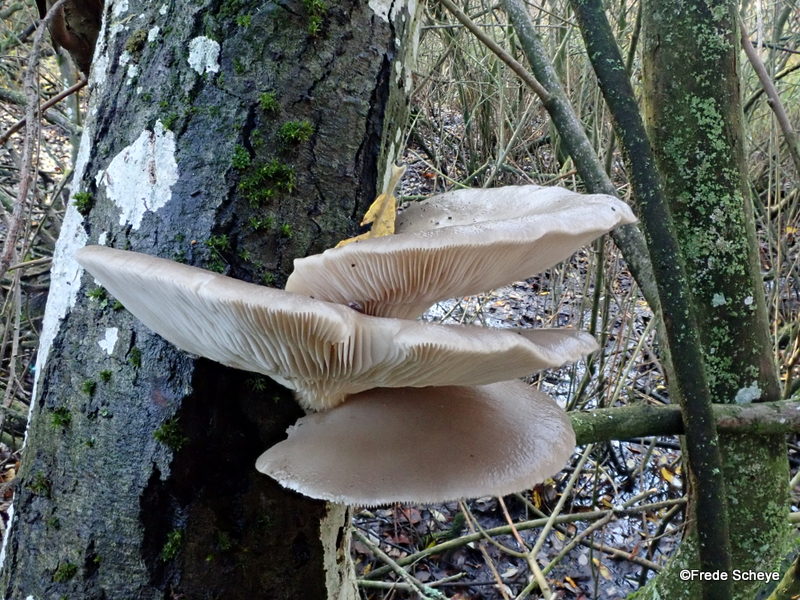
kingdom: Fungi
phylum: Basidiomycota
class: Agaricomycetes
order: Agaricales
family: Pleurotaceae
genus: Pleurotus
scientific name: Pleurotus ostreatus
